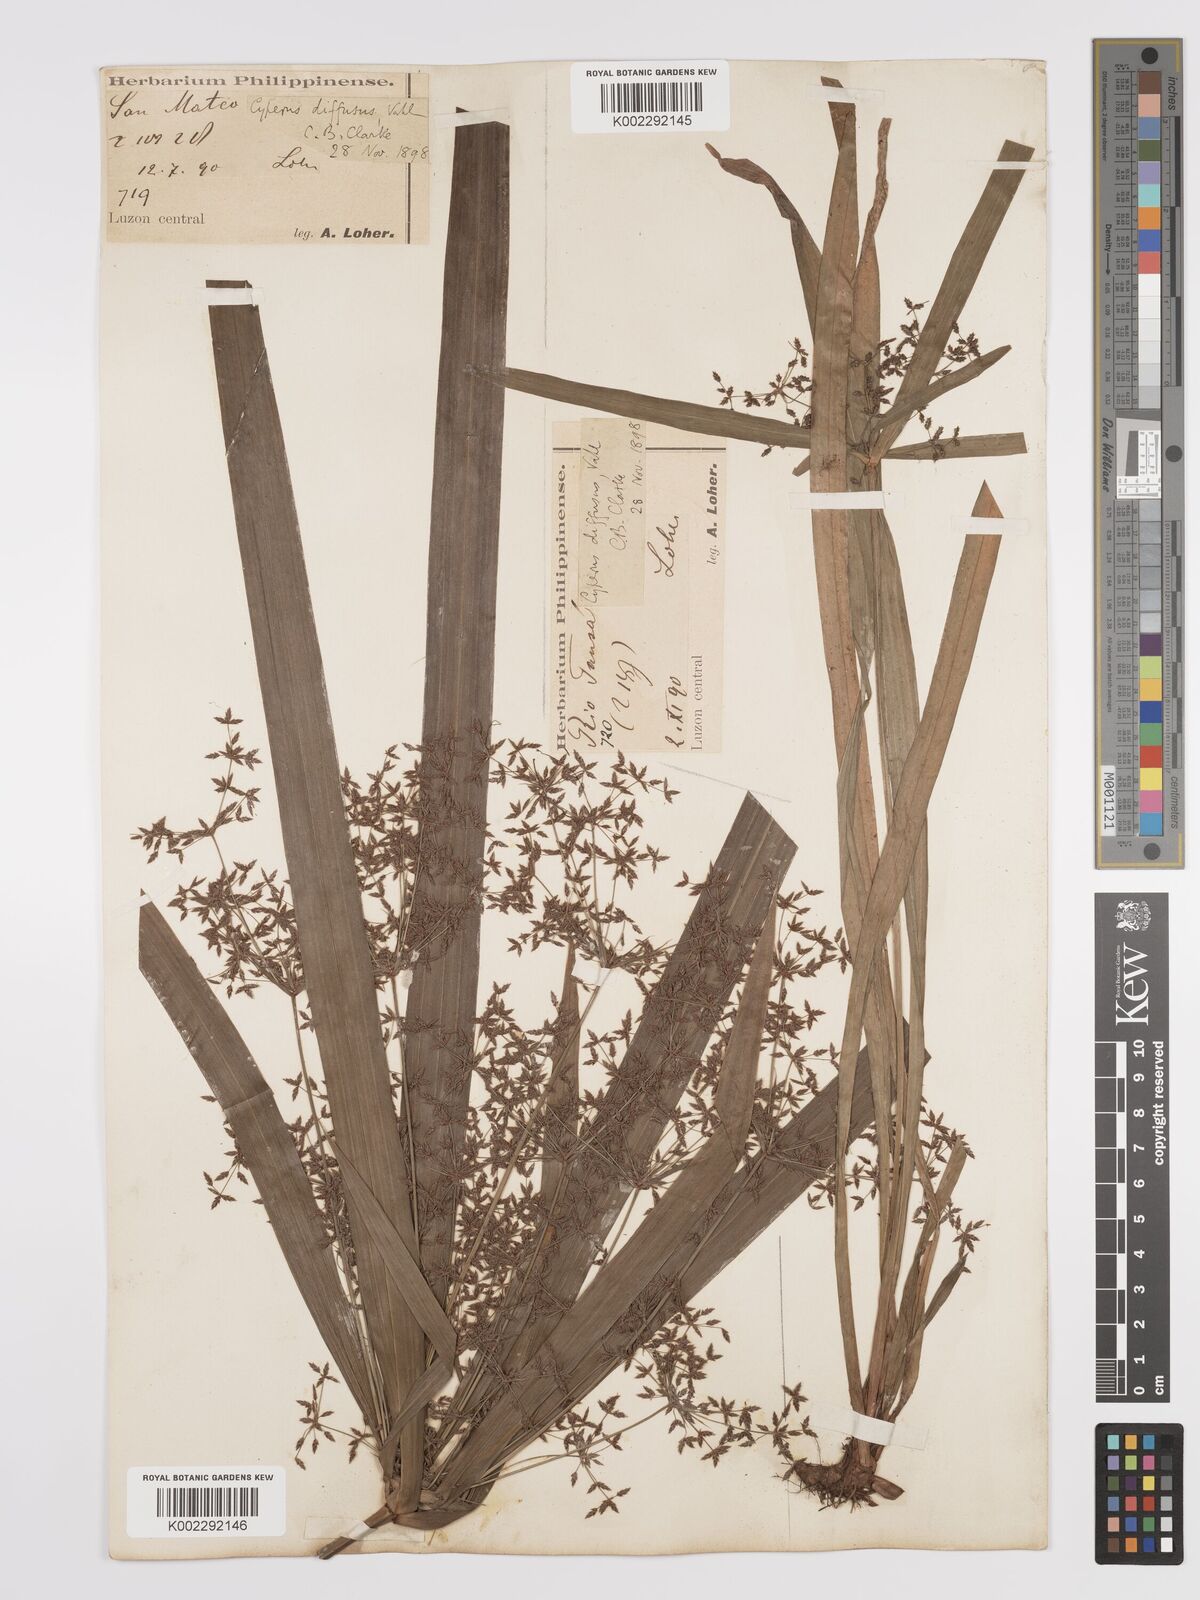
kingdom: Plantae
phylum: Tracheophyta
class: Liliopsida
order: Poales
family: Cyperaceae
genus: Cyperus
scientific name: Cyperus diffusus
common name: Dwarf umbrella grass
